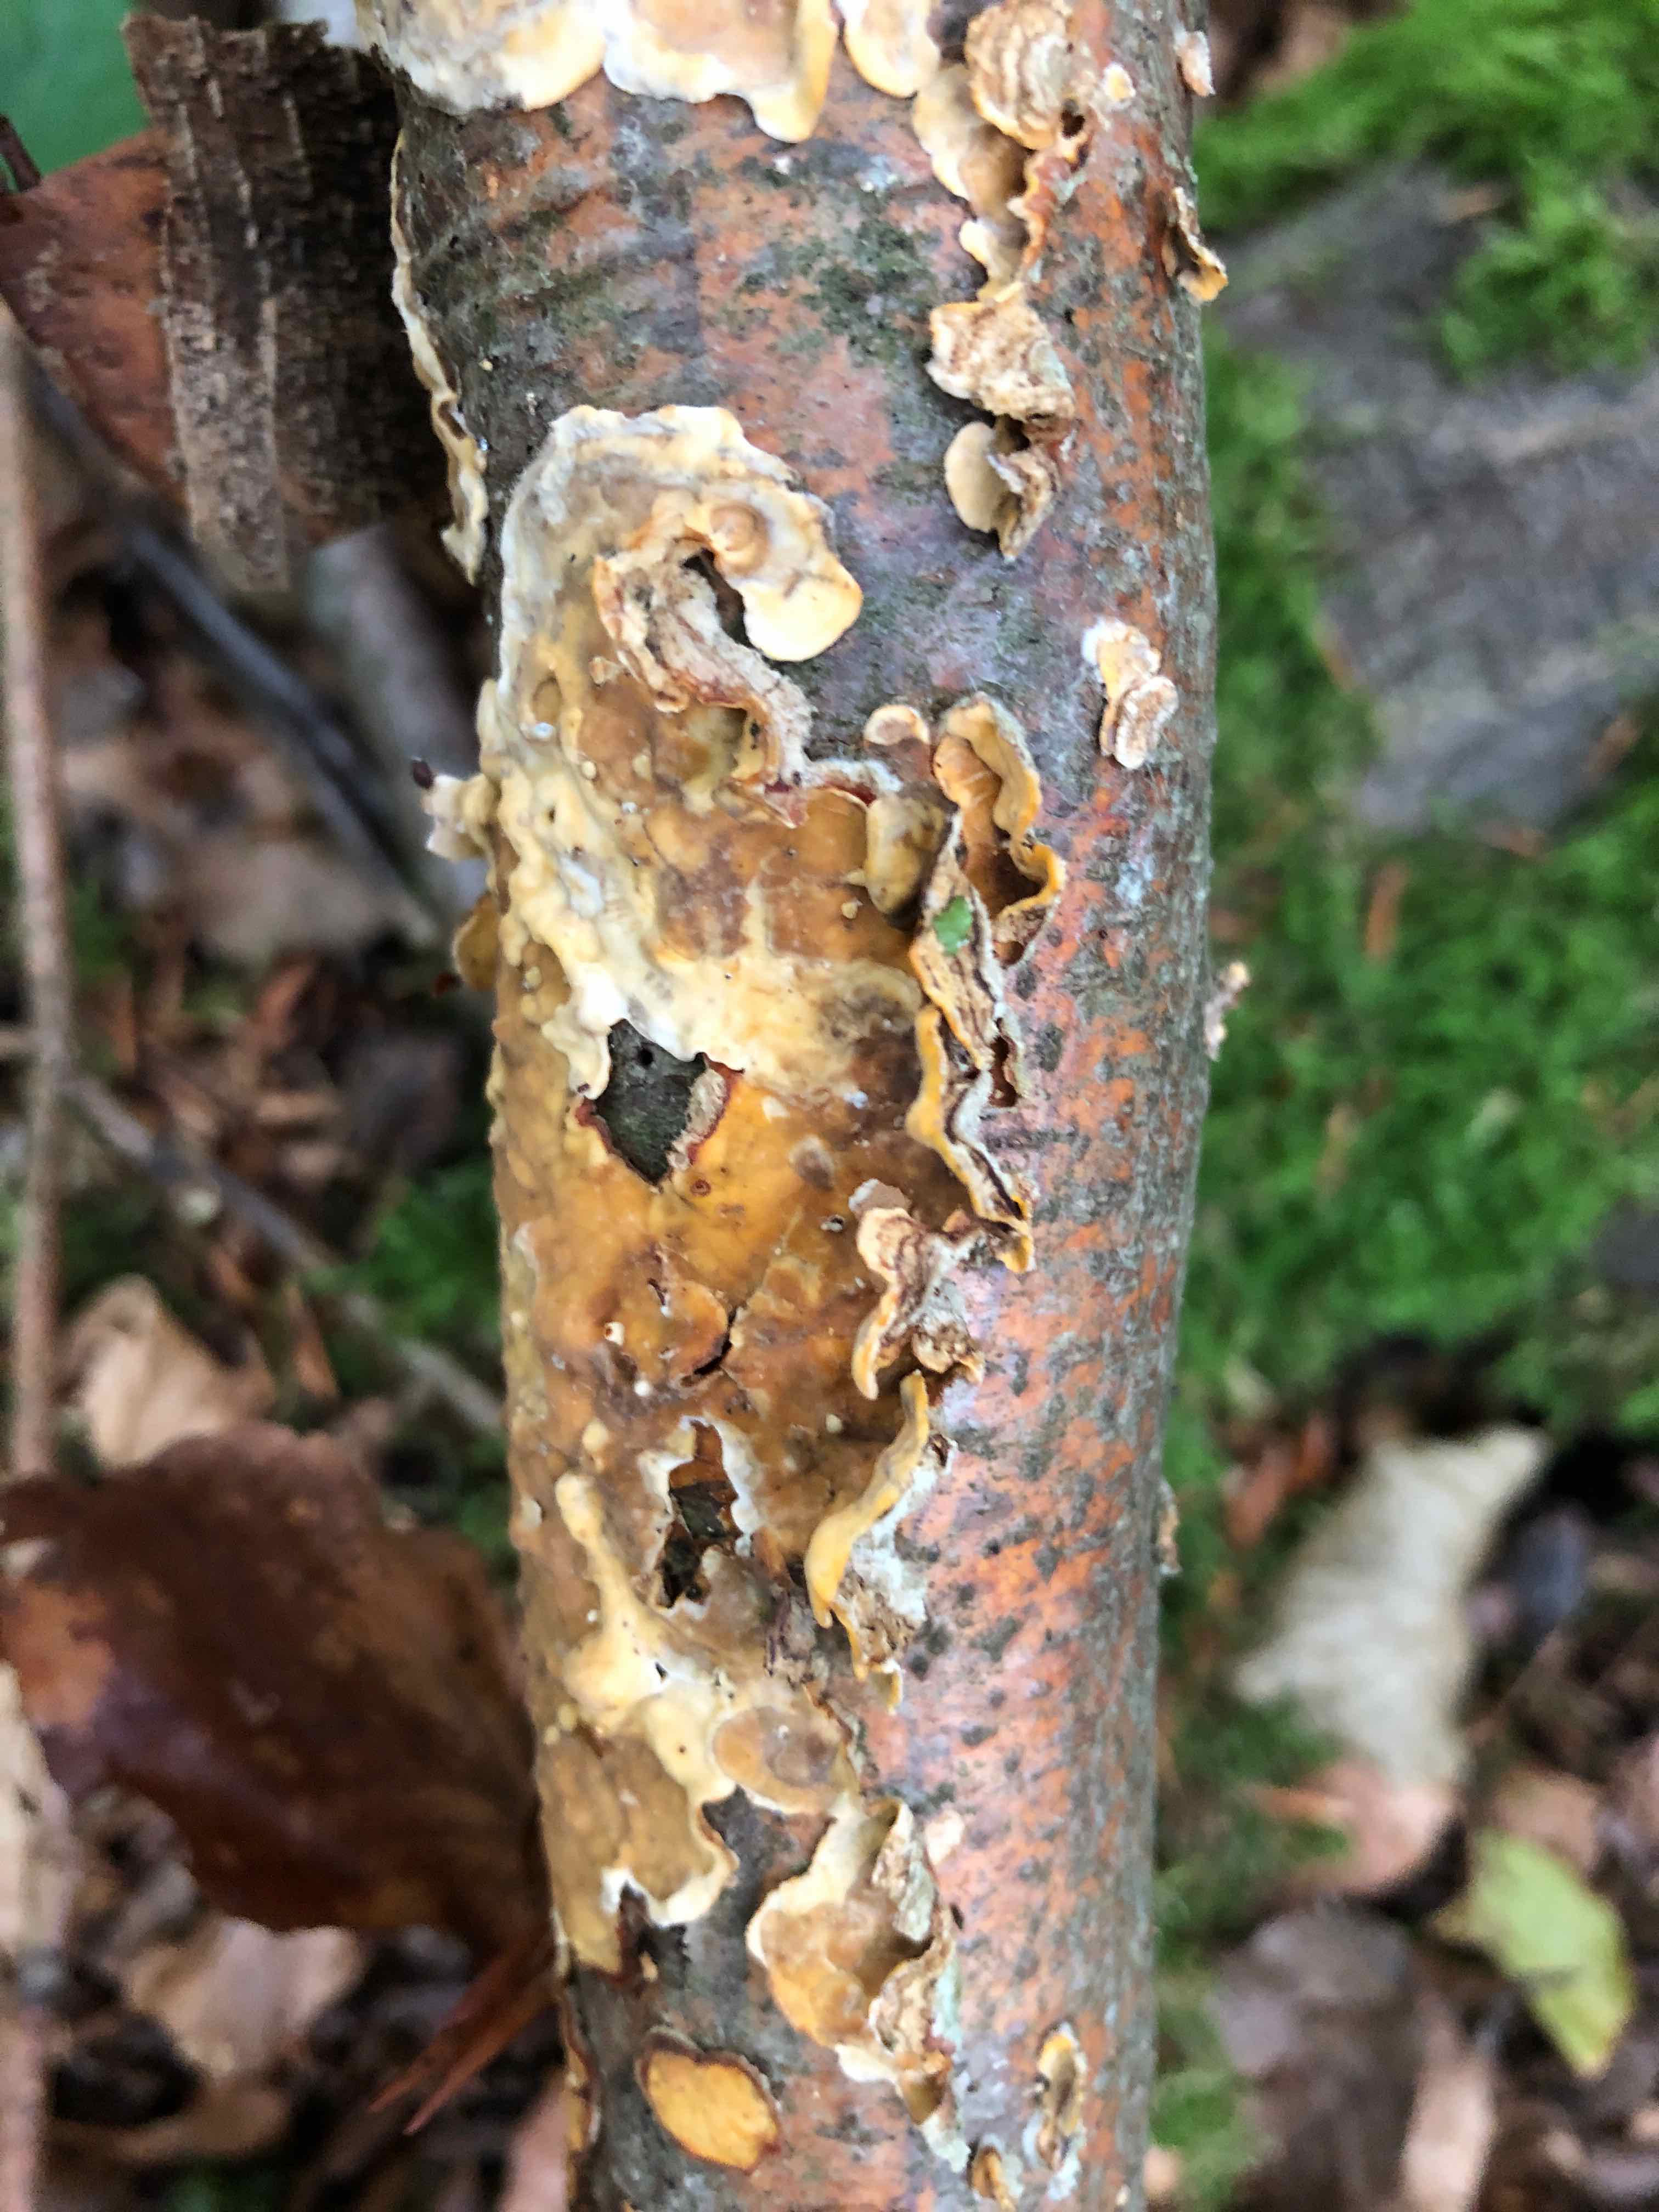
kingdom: Fungi
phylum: Basidiomycota
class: Agaricomycetes
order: Russulales
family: Stereaceae
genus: Stereum
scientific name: Stereum hirsutum
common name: håret lædersvamp
